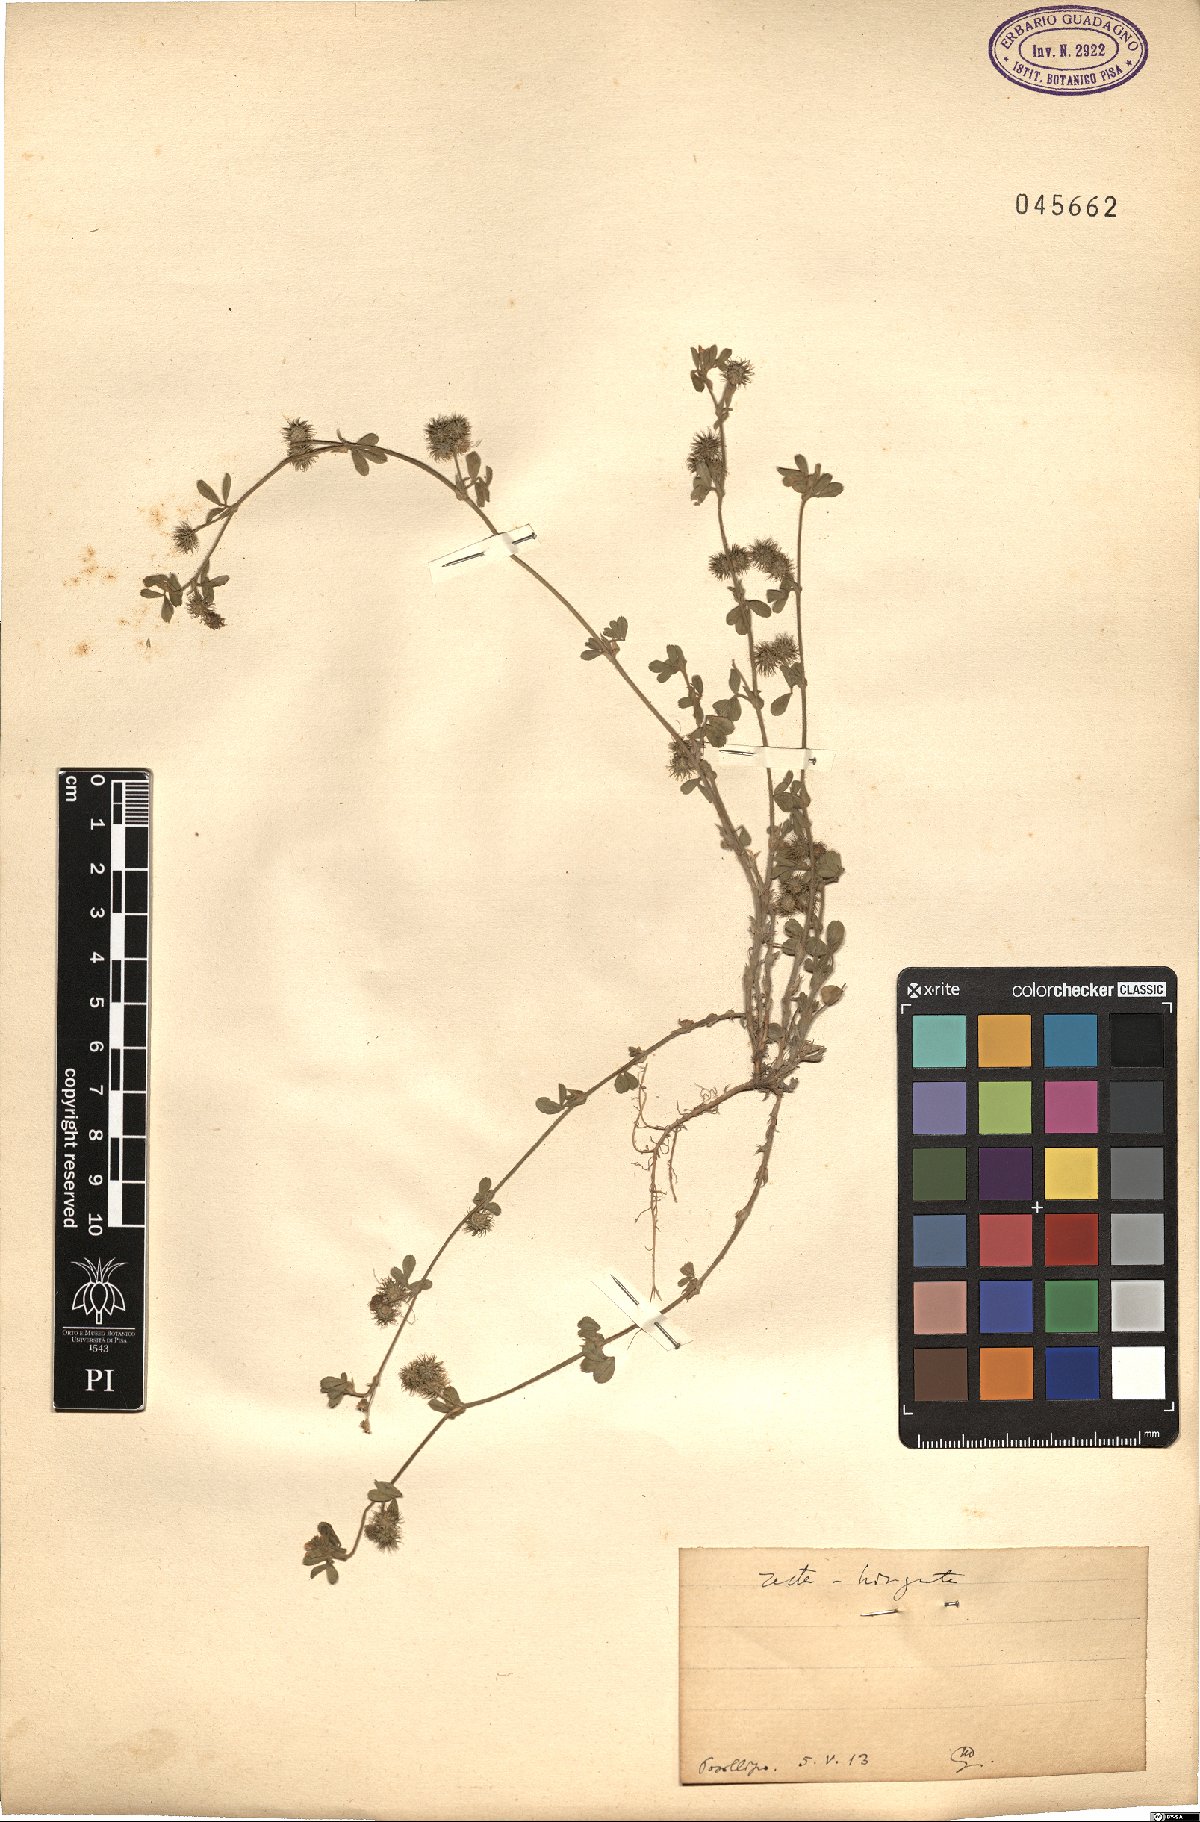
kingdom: Plantae
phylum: Tracheophyta
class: Magnoliopsida
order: Fabales
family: Fabaceae
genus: Medicago
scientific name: Medicago minima
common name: Little bur-clover
